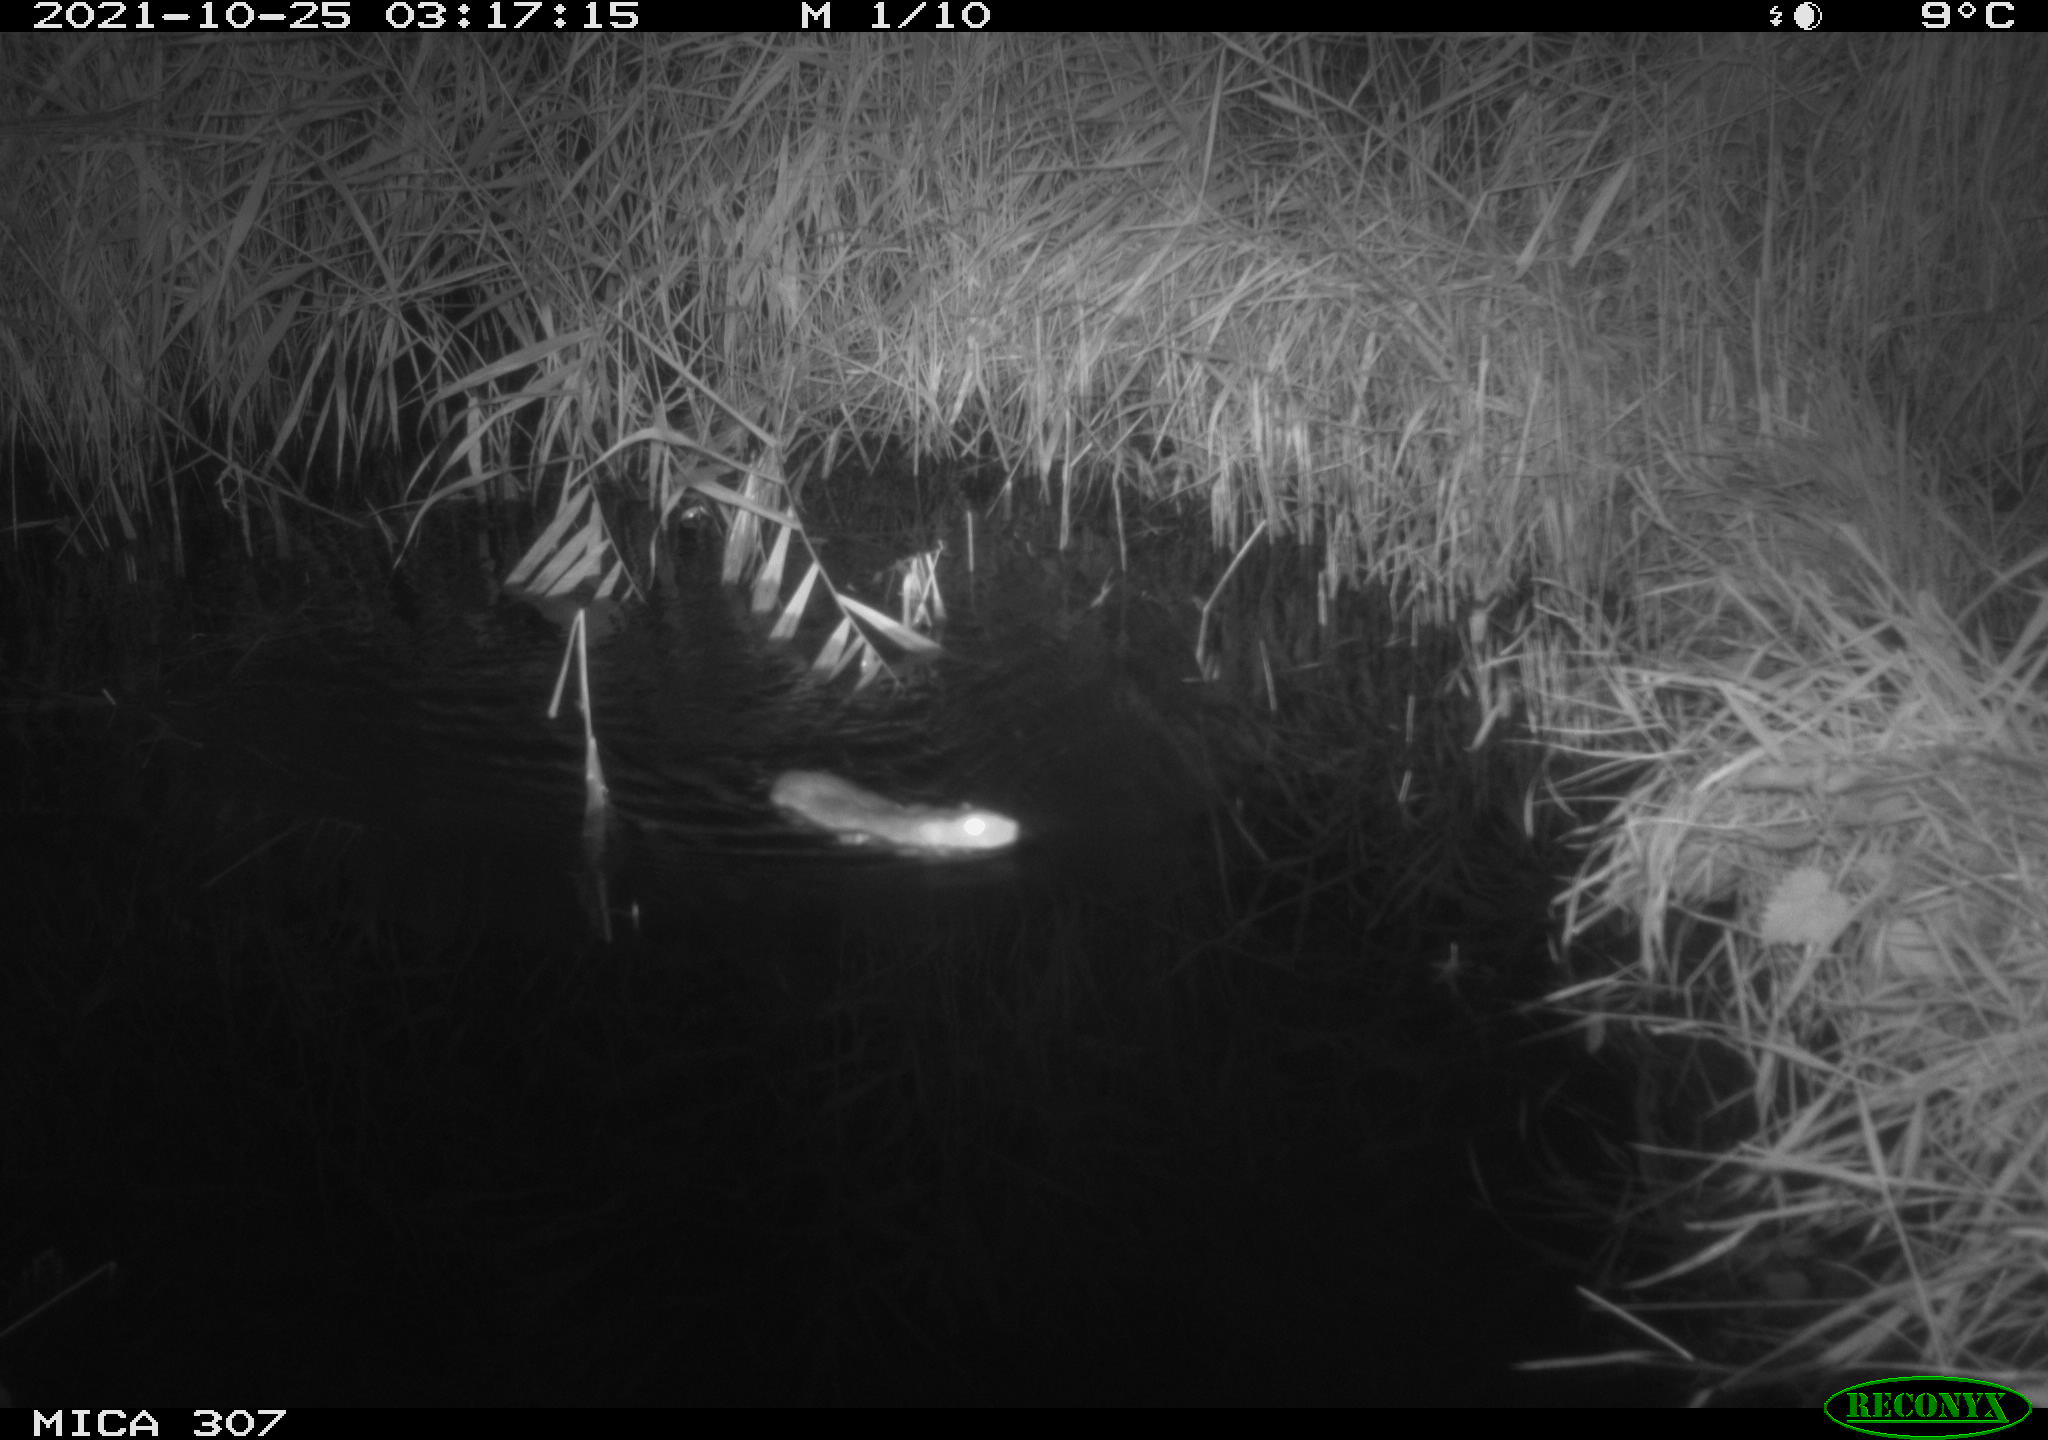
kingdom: Animalia
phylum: Chordata
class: Mammalia
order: Rodentia
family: Muridae
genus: Rattus
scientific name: Rattus norvegicus
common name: Brown rat
